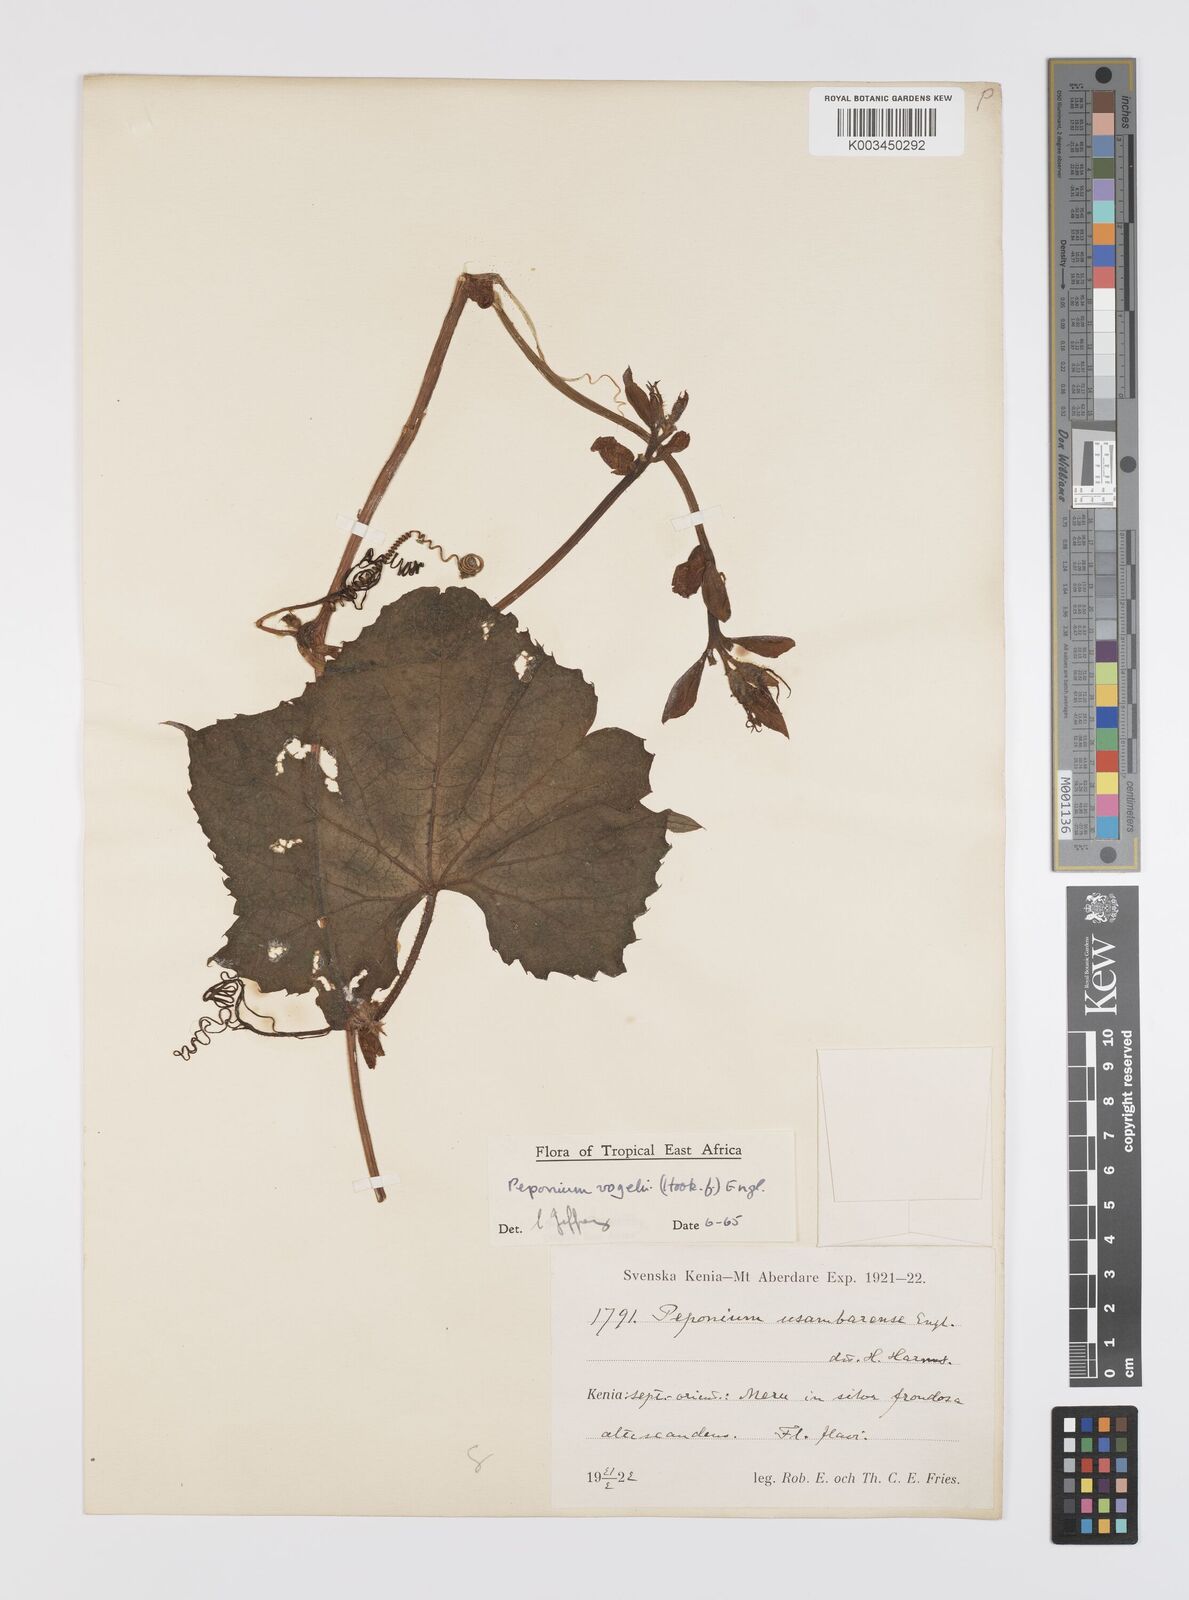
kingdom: Plantae
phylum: Tracheophyta
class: Magnoliopsida
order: Cucurbitales
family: Cucurbitaceae
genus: Peponium
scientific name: Peponium vogelii
